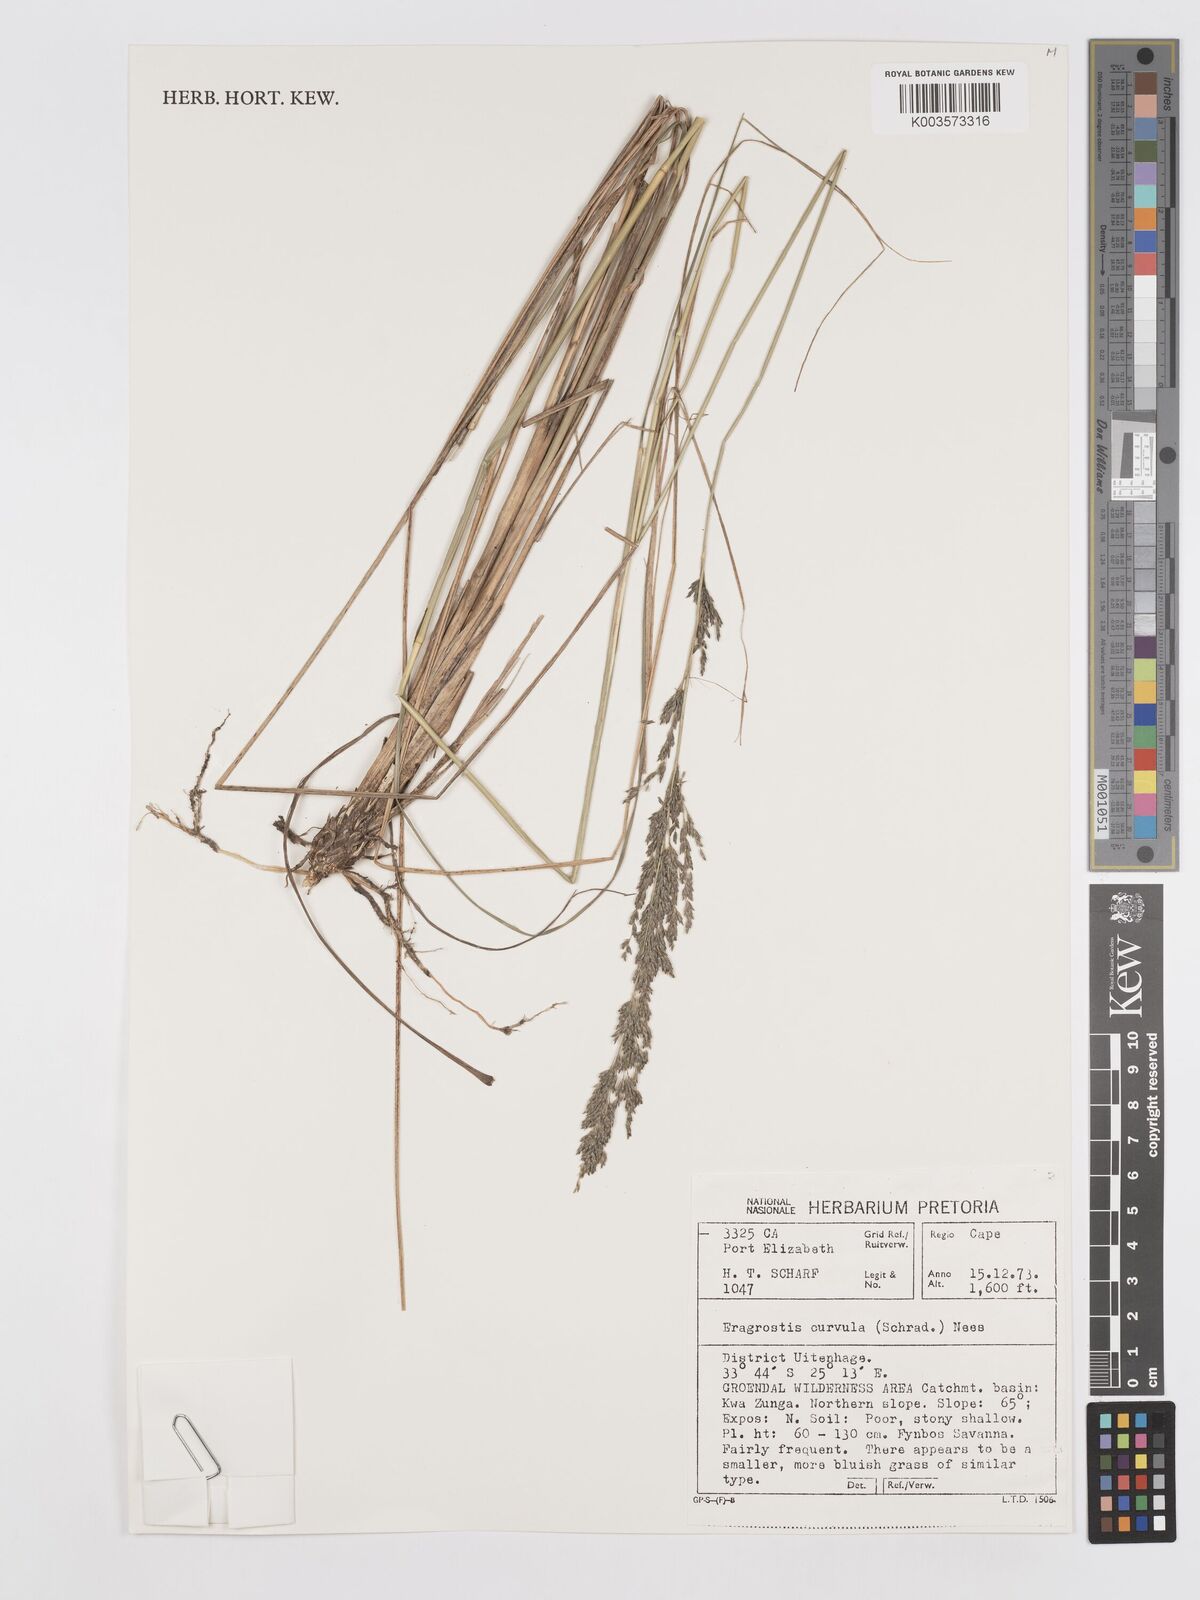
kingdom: Plantae
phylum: Tracheophyta
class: Liliopsida
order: Poales
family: Poaceae
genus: Eragrostis
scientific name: Eragrostis curvula
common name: African love-grass
